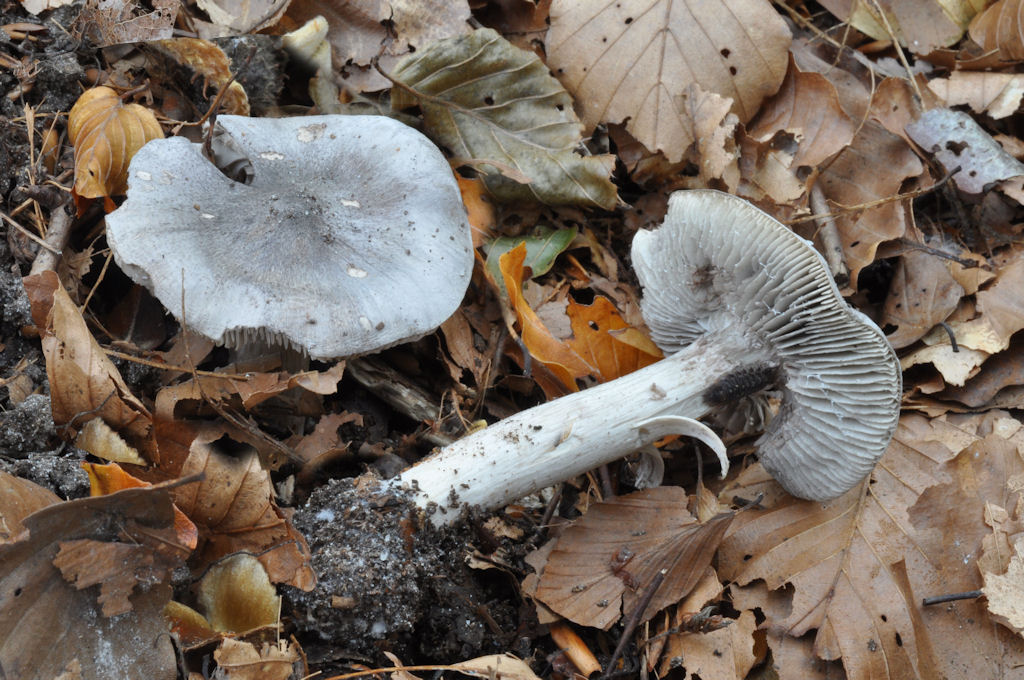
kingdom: Fungi
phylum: Basidiomycota
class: Agaricomycetes
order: Agaricales
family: Tricholomataceae
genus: Tricholoma
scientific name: Tricholoma sciodes
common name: stribet ridderhat
